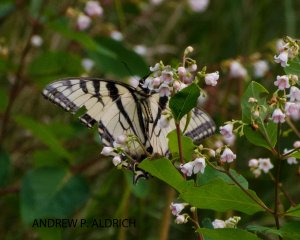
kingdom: Animalia
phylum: Arthropoda
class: Insecta
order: Lepidoptera
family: Papilionidae
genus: Pterourus
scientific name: Pterourus canadensis
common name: Canadian Tiger Swallowtail
